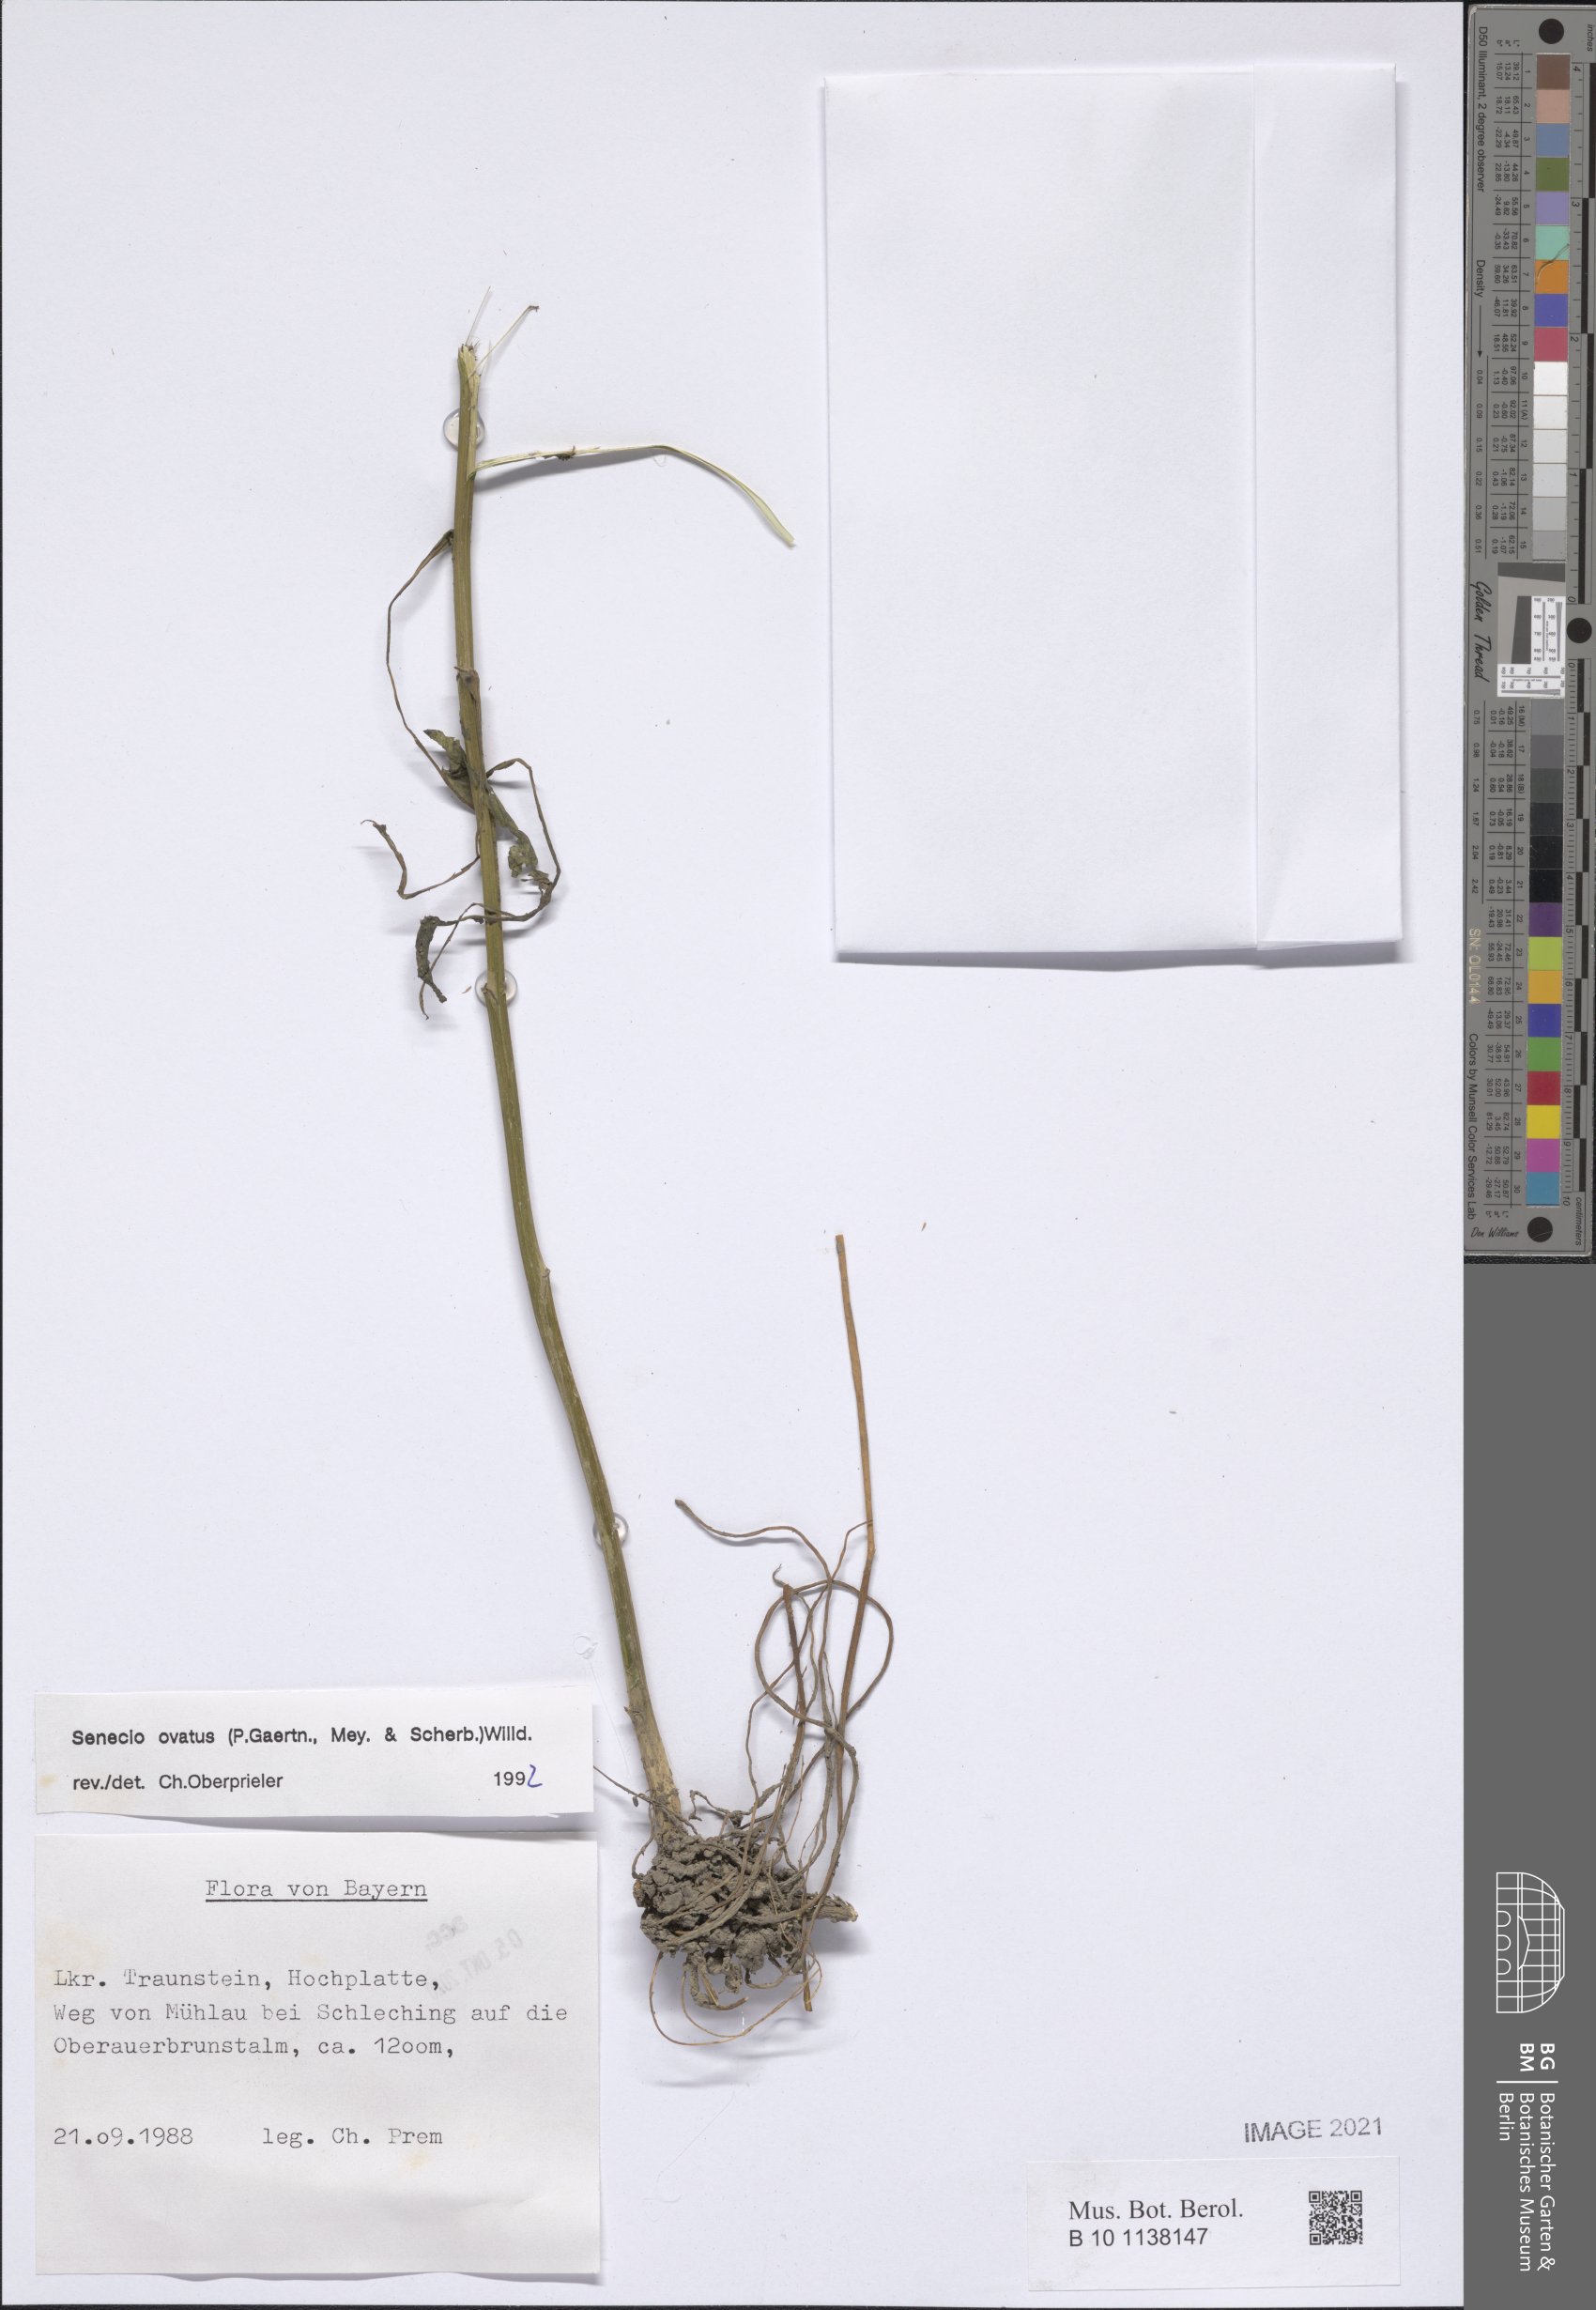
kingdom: Plantae
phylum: Tracheophyta
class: Magnoliopsida
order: Asterales
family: Asteraceae
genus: Senecio
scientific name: Senecio ovatus
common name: Wood ragwort
